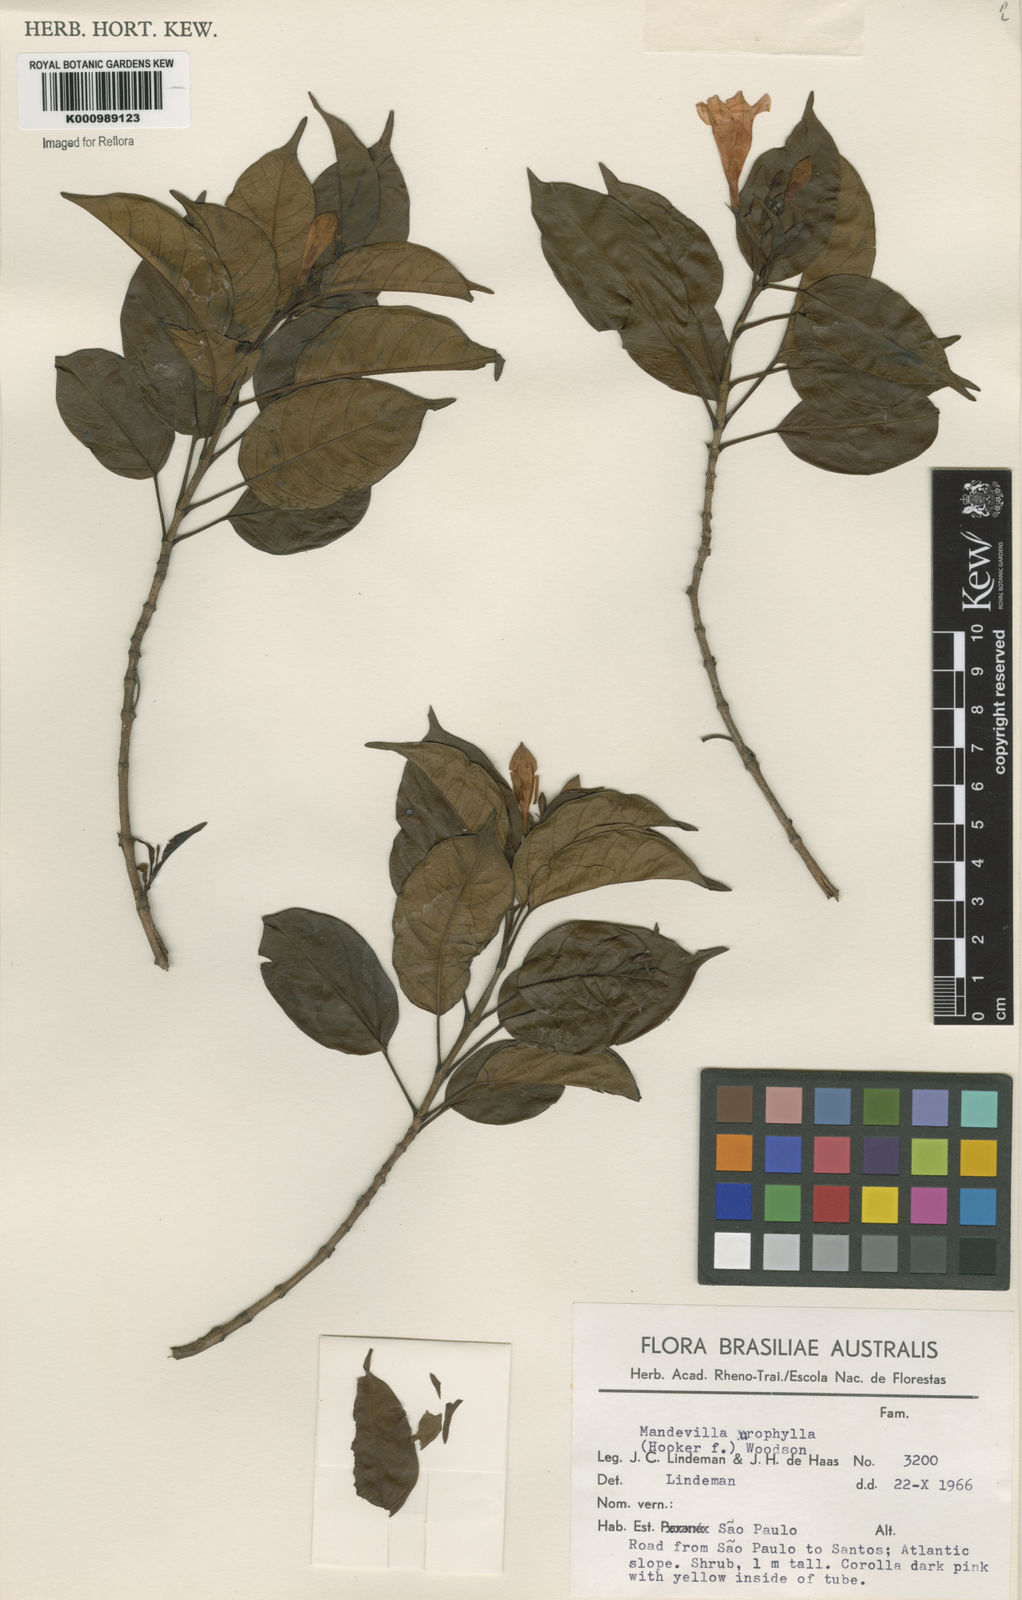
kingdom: Plantae
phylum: Tracheophyta
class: Magnoliopsida
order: Gentianales
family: Apocynaceae
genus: Mandevilla
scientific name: Mandevilla urophylla
